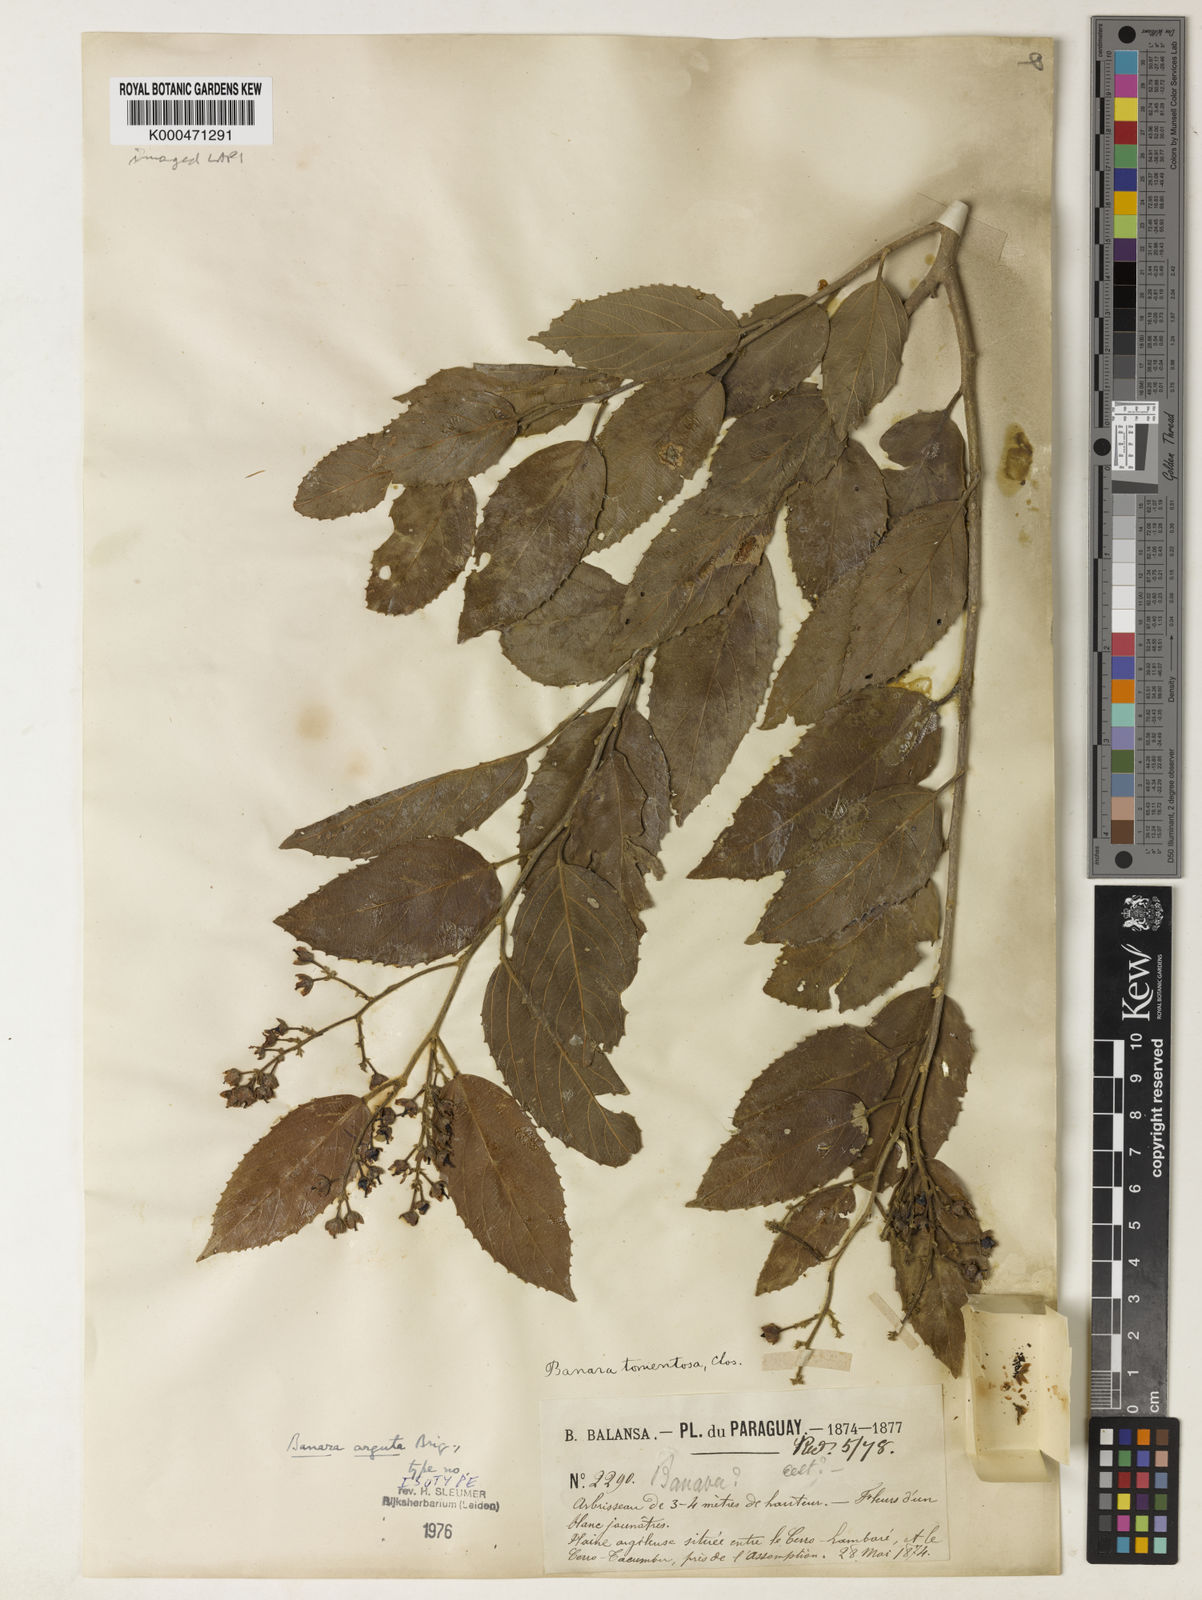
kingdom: Plantae
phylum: Tracheophyta
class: Magnoliopsida
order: Malpighiales
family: Salicaceae
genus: Banara
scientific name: Banara arguta
